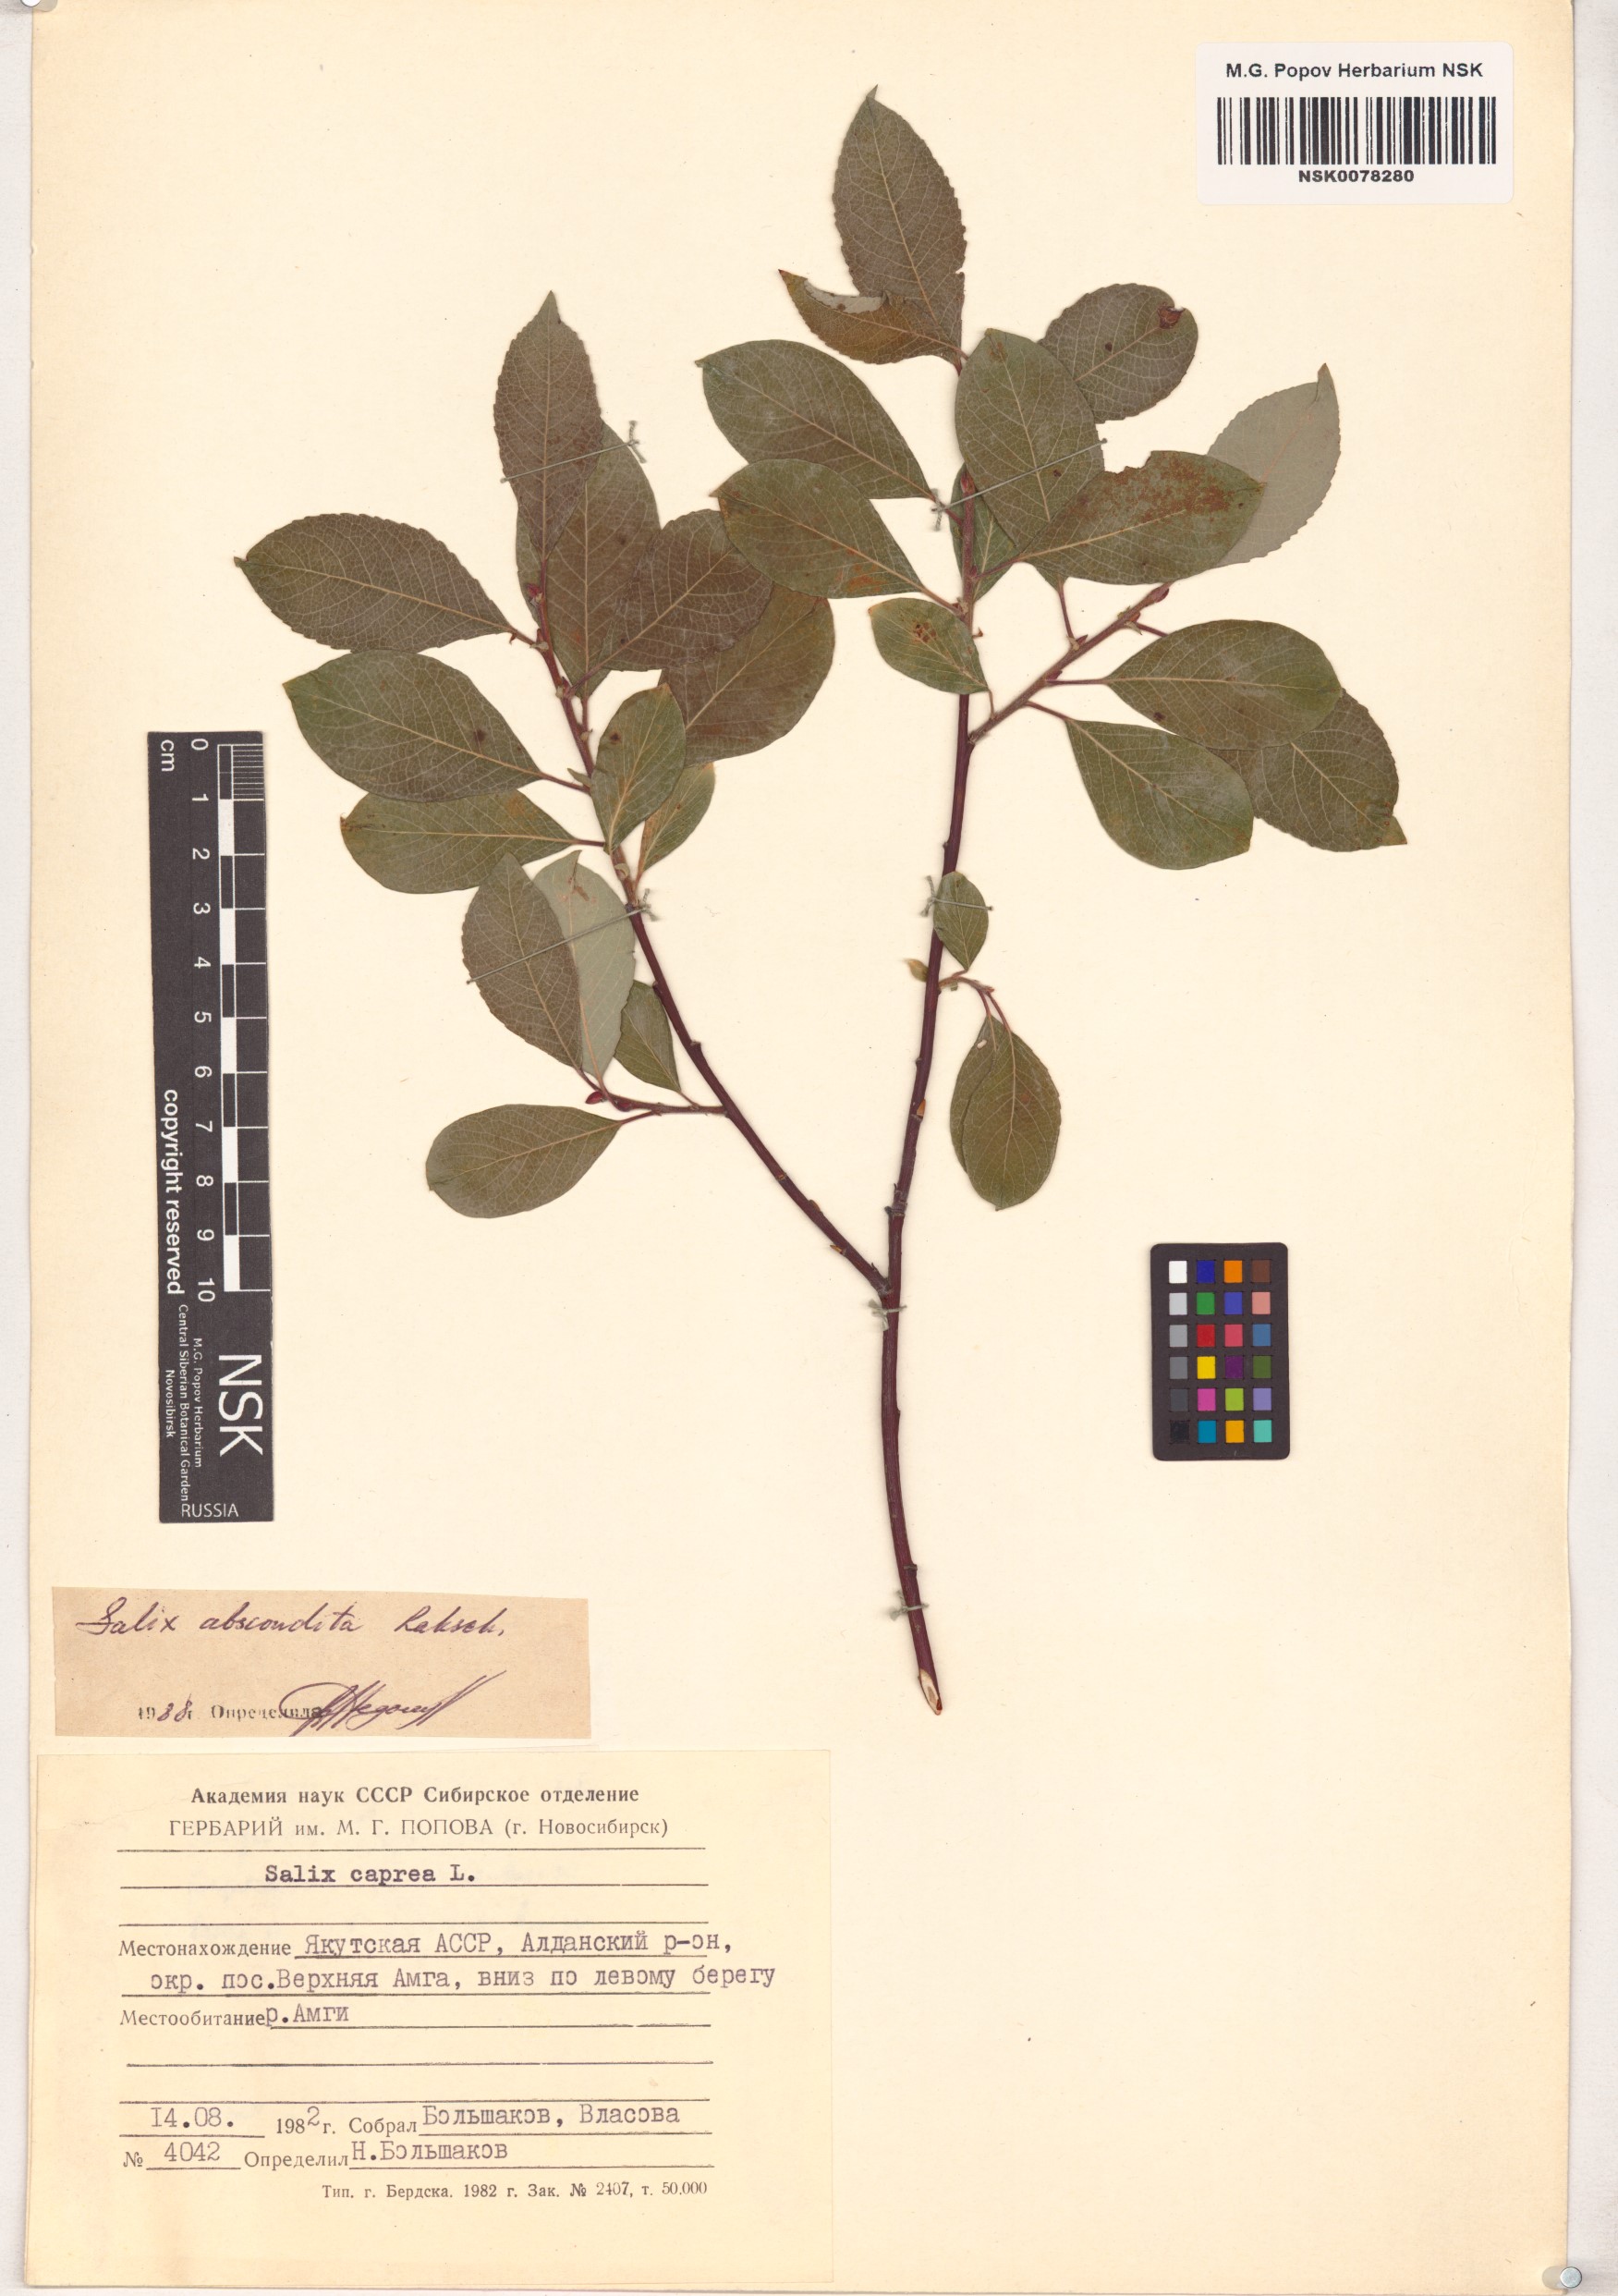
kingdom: Plantae
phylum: Tracheophyta
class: Magnoliopsida
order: Malpighiales
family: Salicaceae
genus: Salix
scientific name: Salix abscondita
